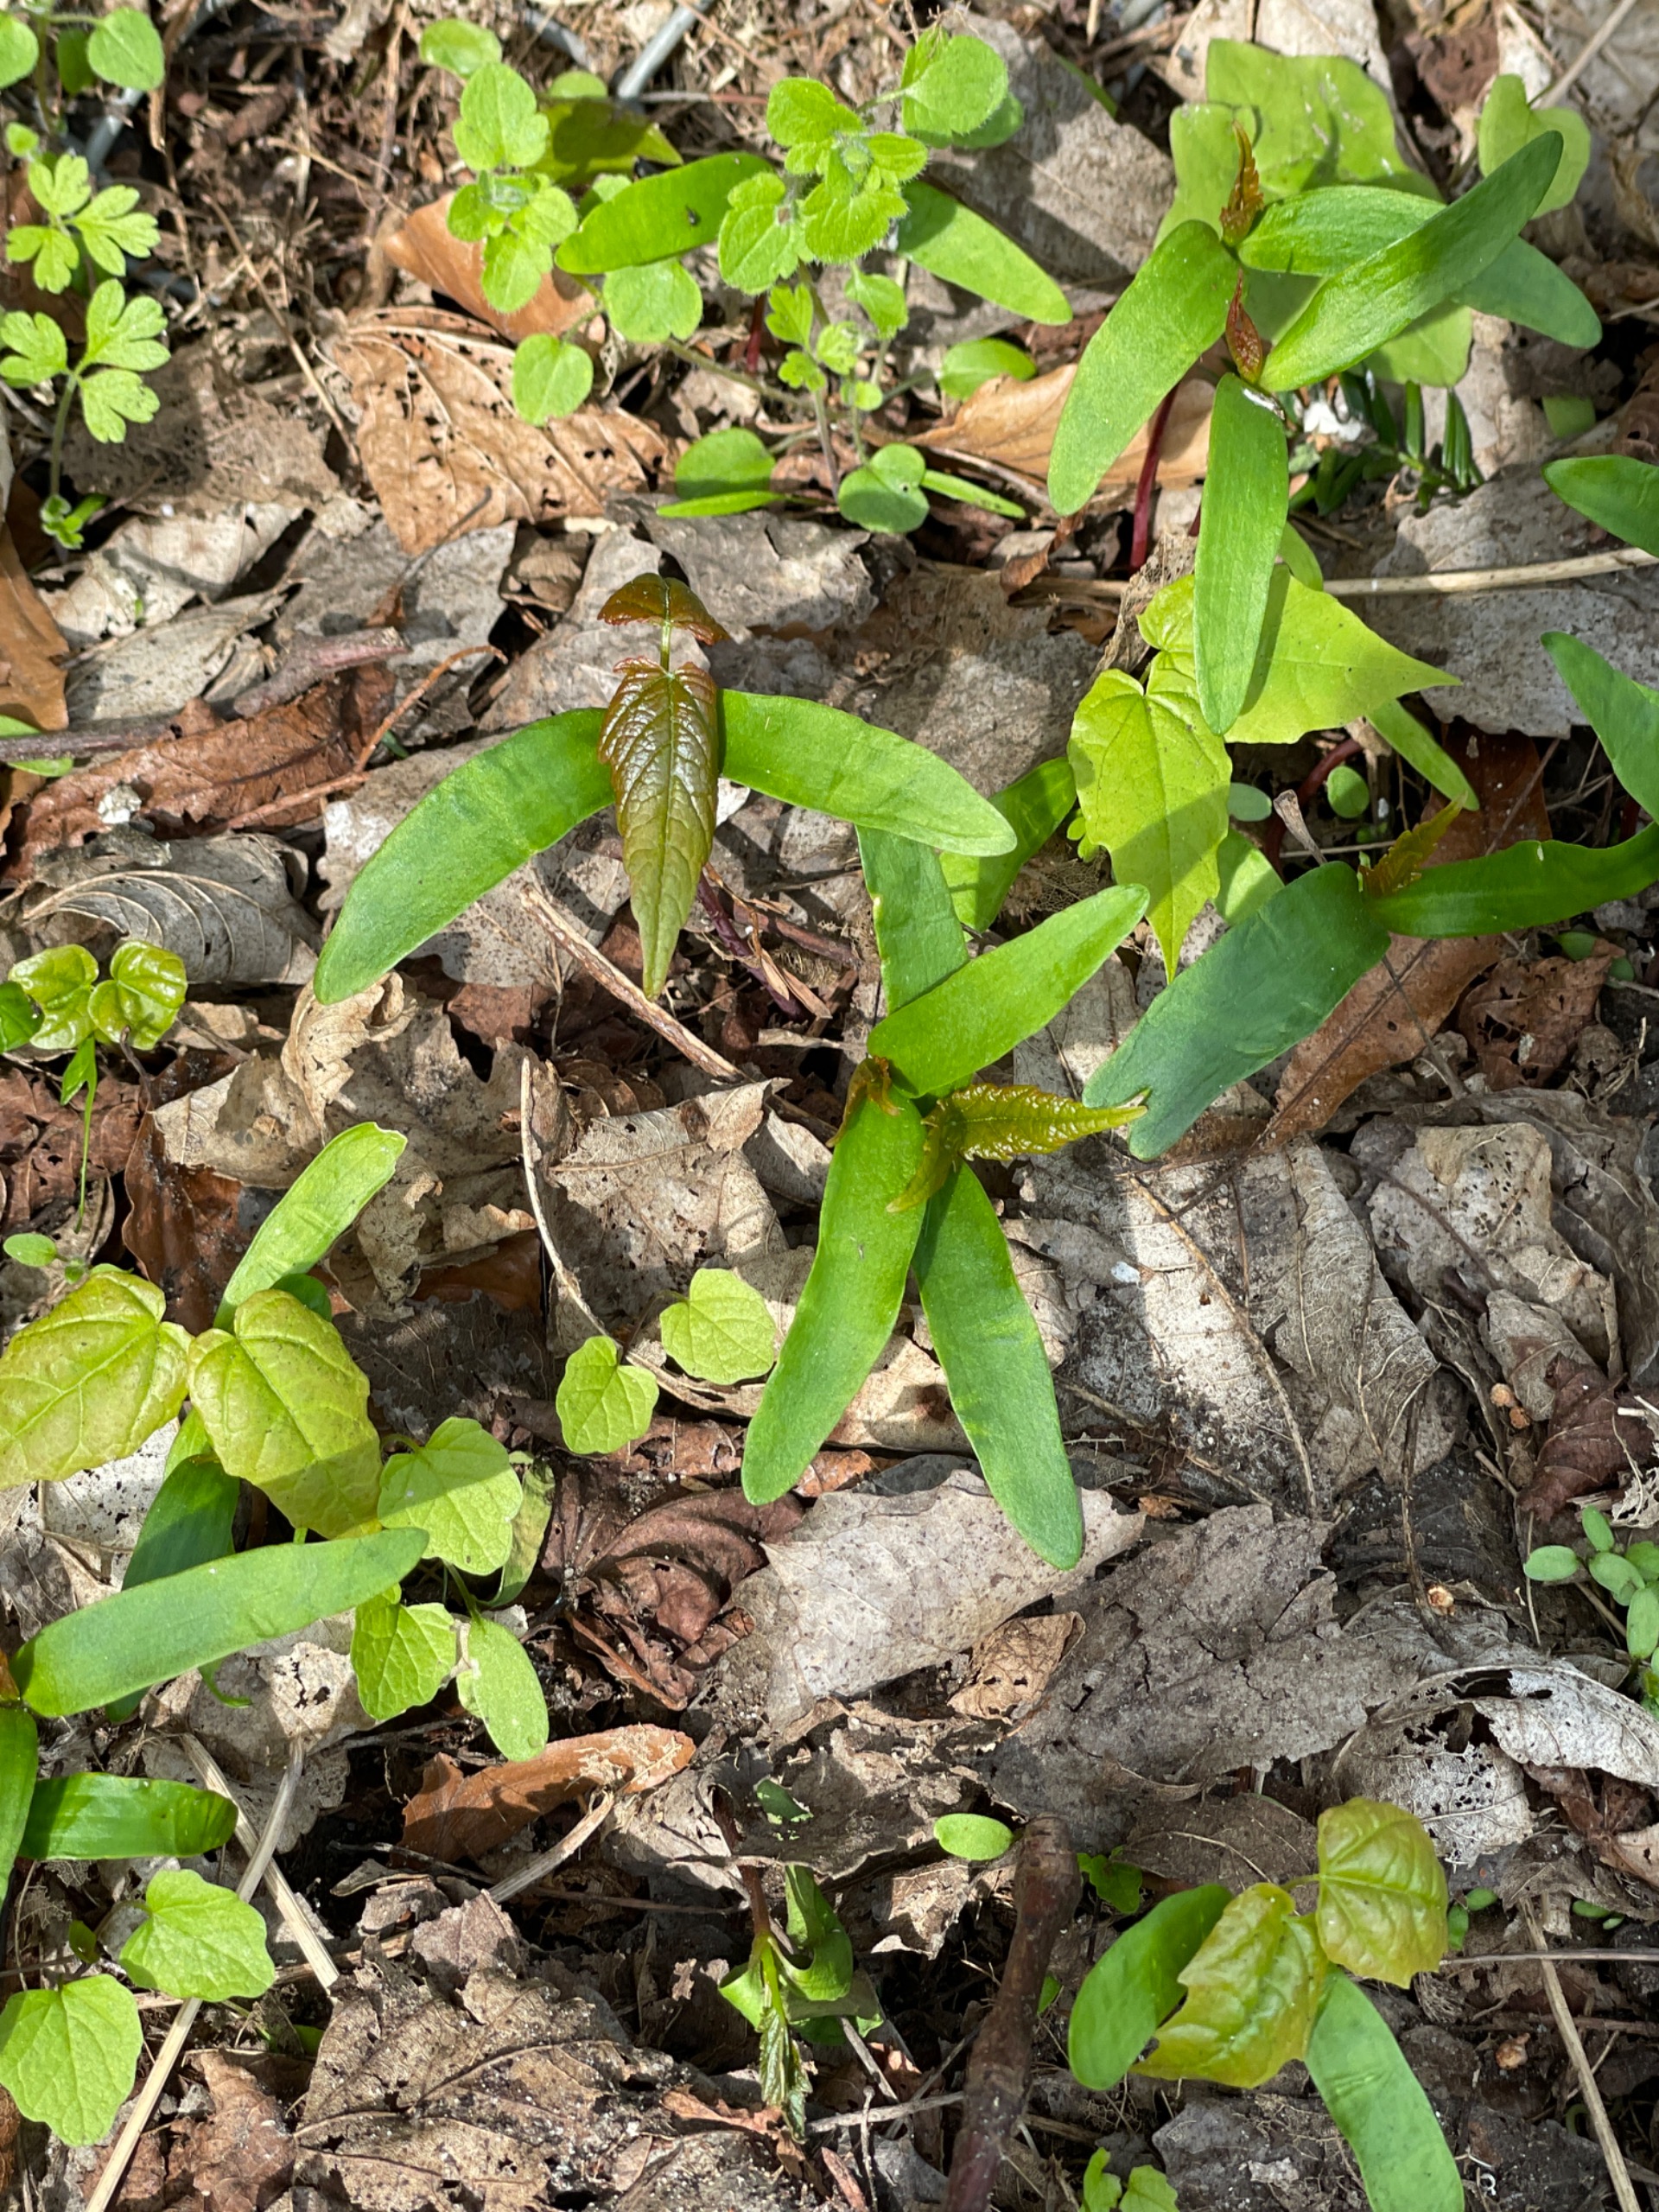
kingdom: Plantae
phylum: Tracheophyta
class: Magnoliopsida
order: Sapindales
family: Sapindaceae
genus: Acer
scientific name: Acer pseudoplatanus
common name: Ahorn
